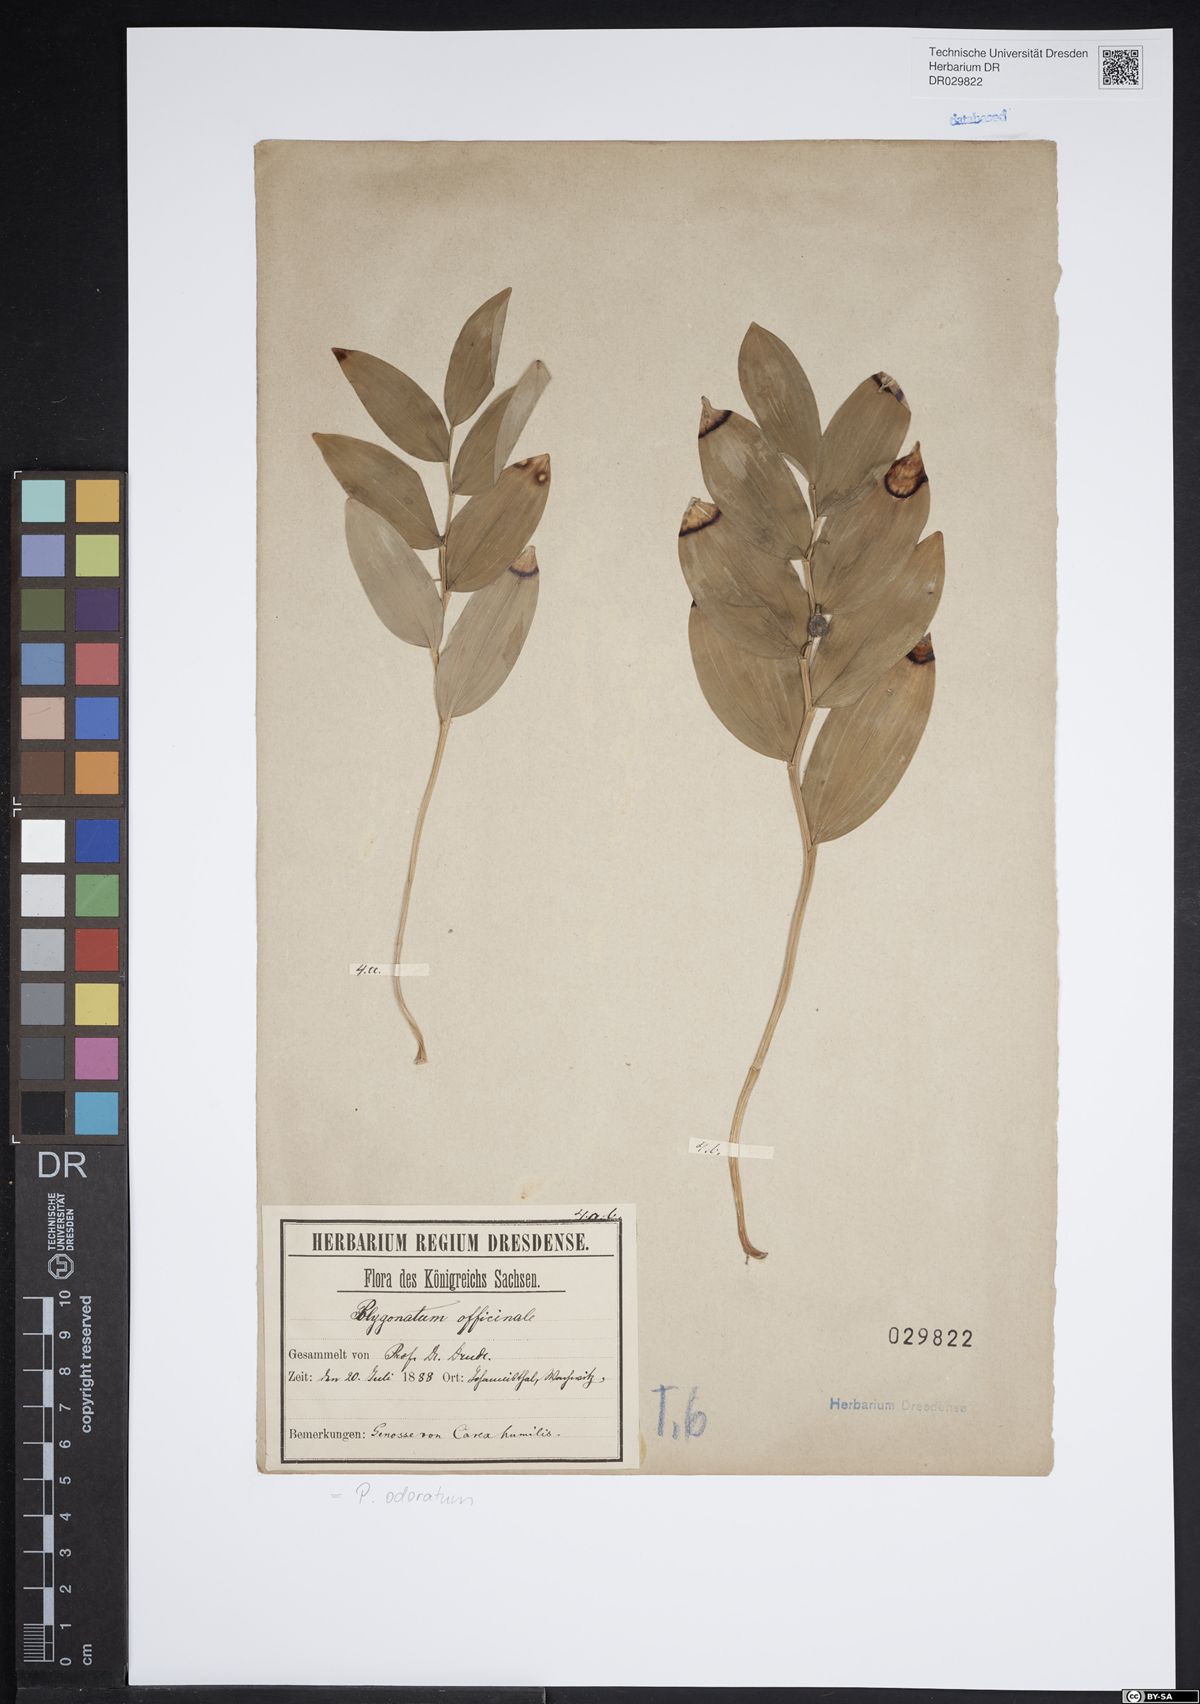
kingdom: Plantae
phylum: Tracheophyta
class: Liliopsida
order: Asparagales
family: Asparagaceae
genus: Polygonatum
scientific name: Polygonatum odoratum
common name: Angular solomon's-seal
